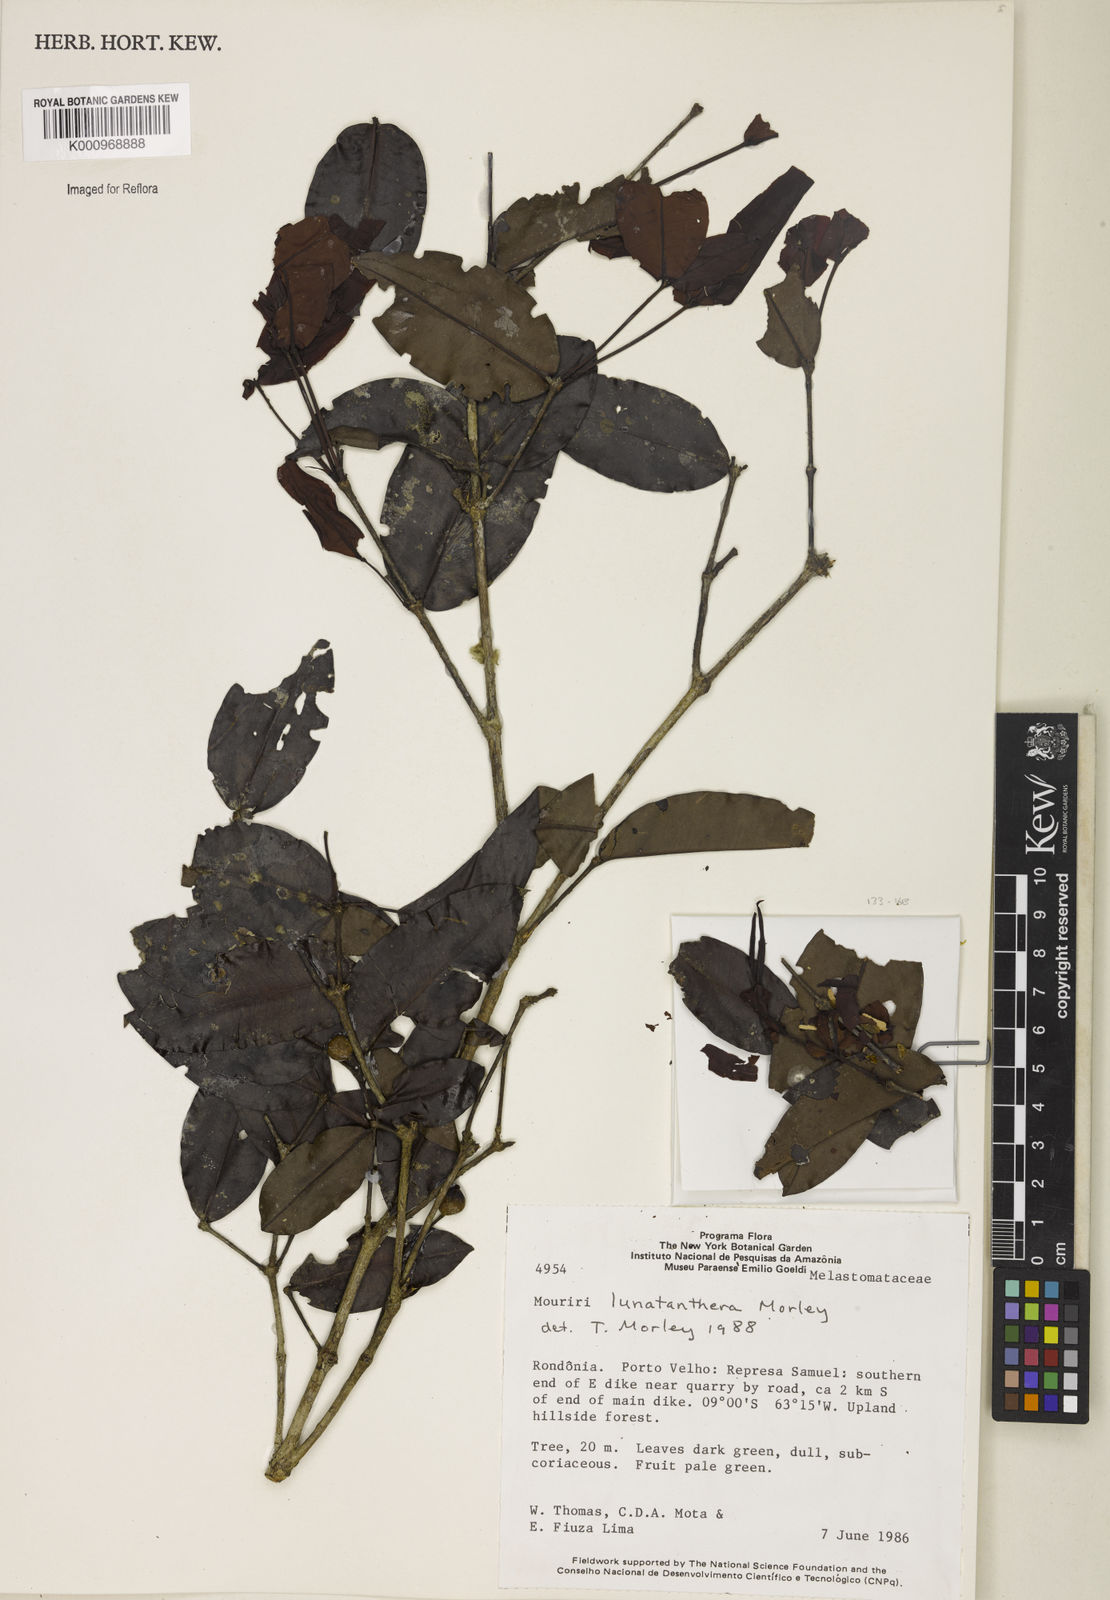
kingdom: Plantae
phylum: Tracheophyta
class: Magnoliopsida
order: Myrtales
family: Melastomataceae
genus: Mouriri
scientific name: Mouriri
